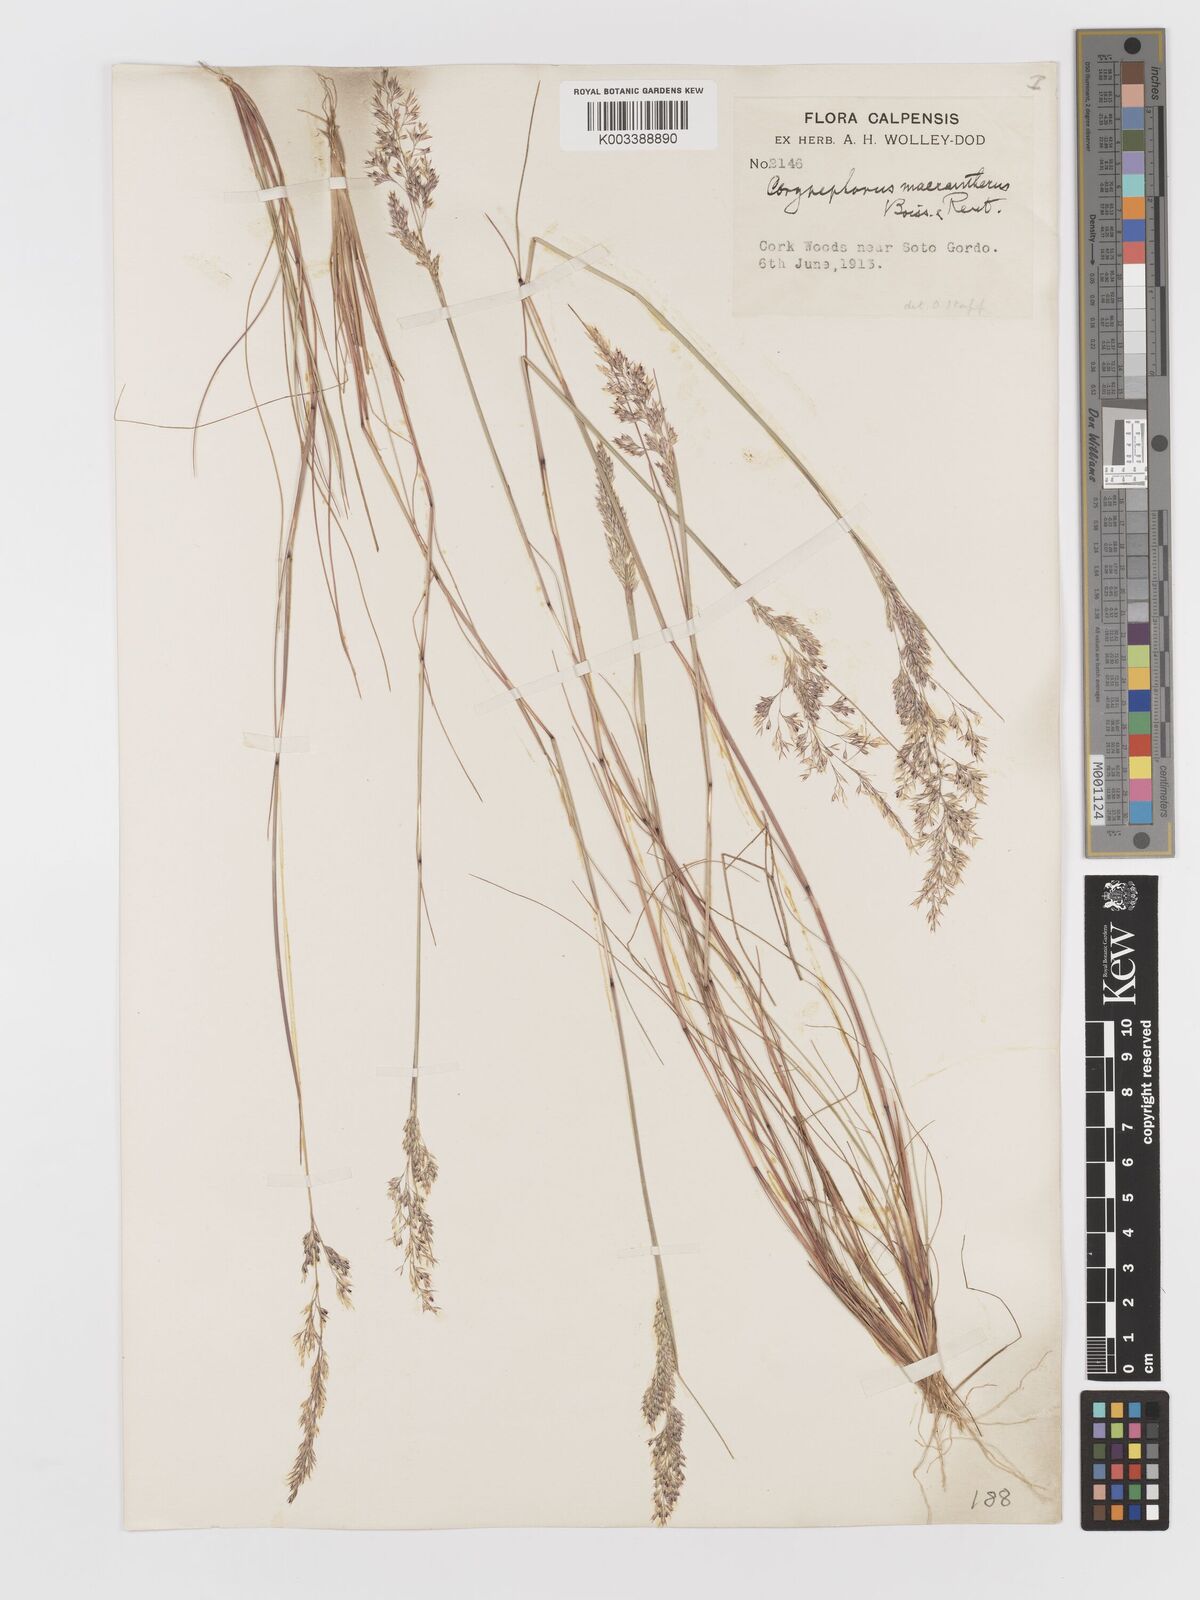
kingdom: Plantae
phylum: Tracheophyta
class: Liliopsida
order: Poales
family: Poaceae
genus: Corynephorus
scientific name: Corynephorus macrantherus
